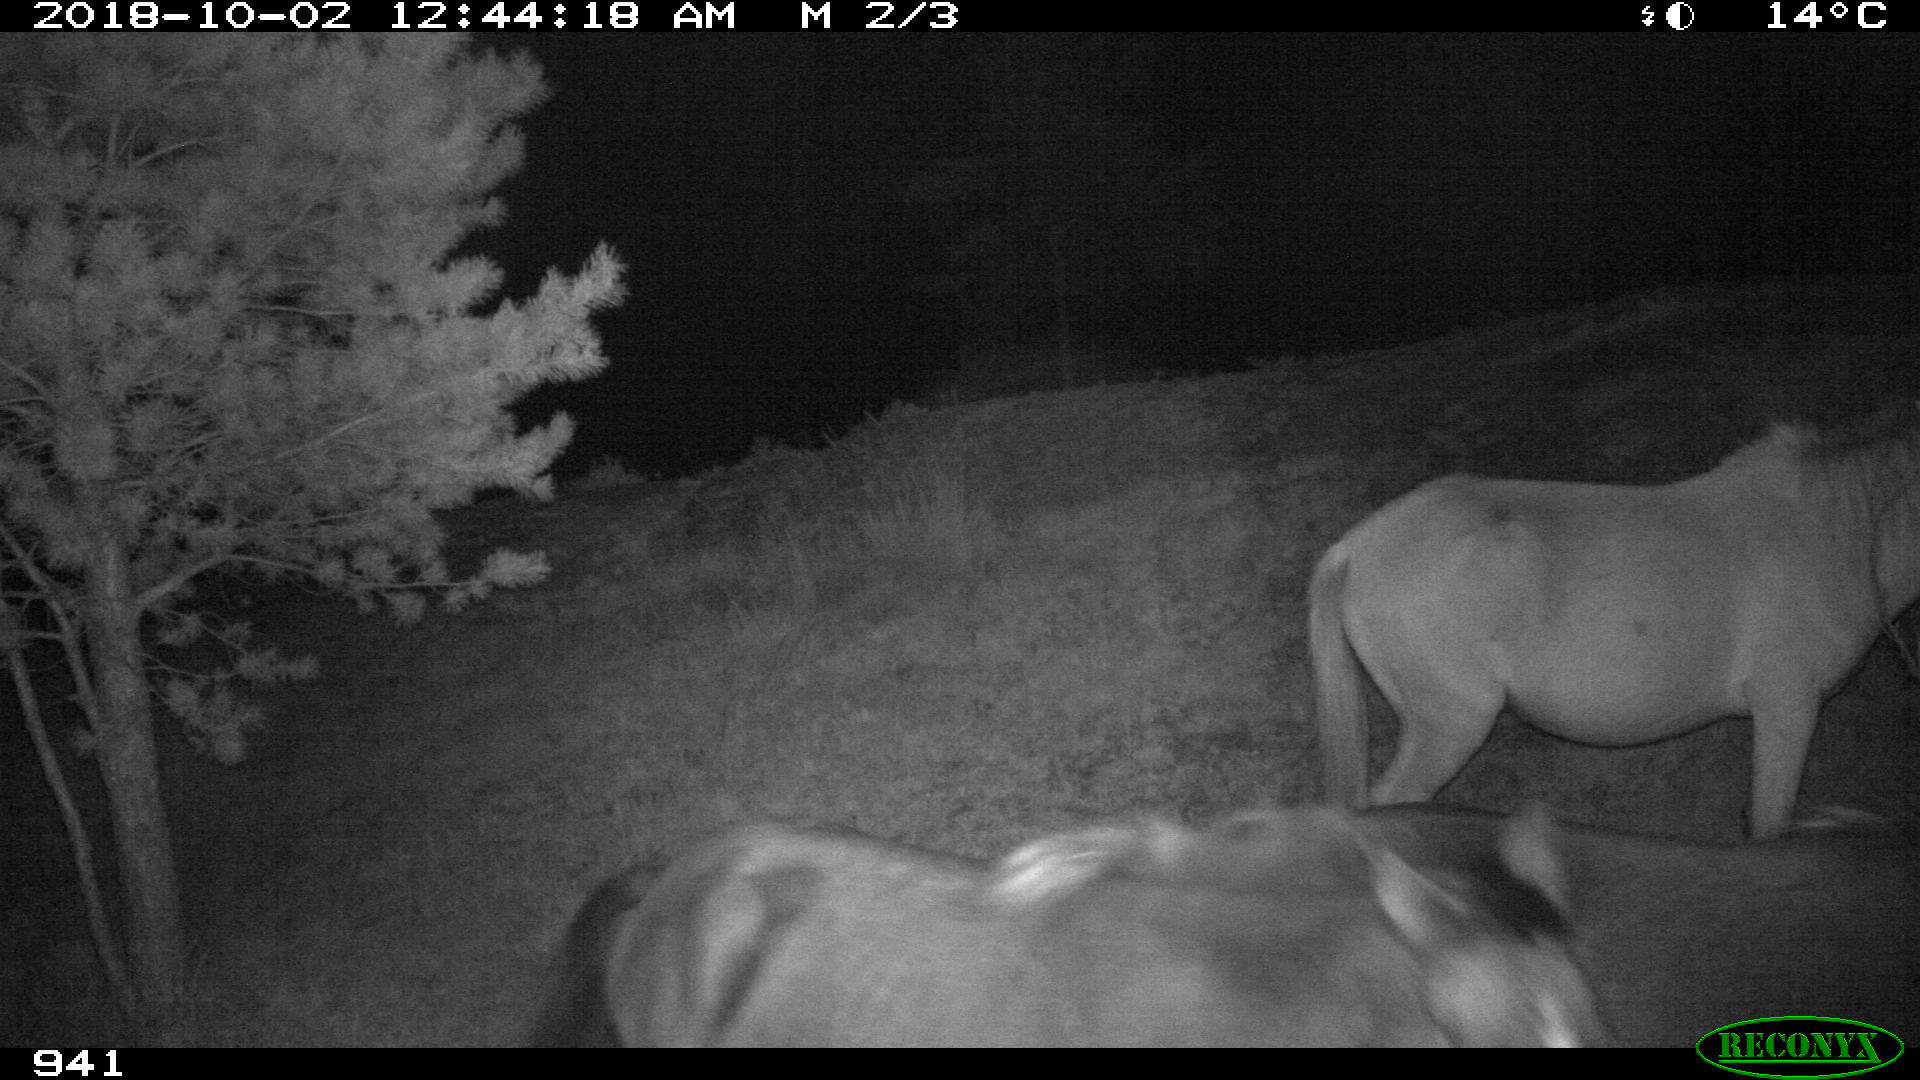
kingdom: Animalia
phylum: Chordata
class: Mammalia
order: Perissodactyla
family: Equidae
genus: Equus
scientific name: Equus caballus
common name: Horse
